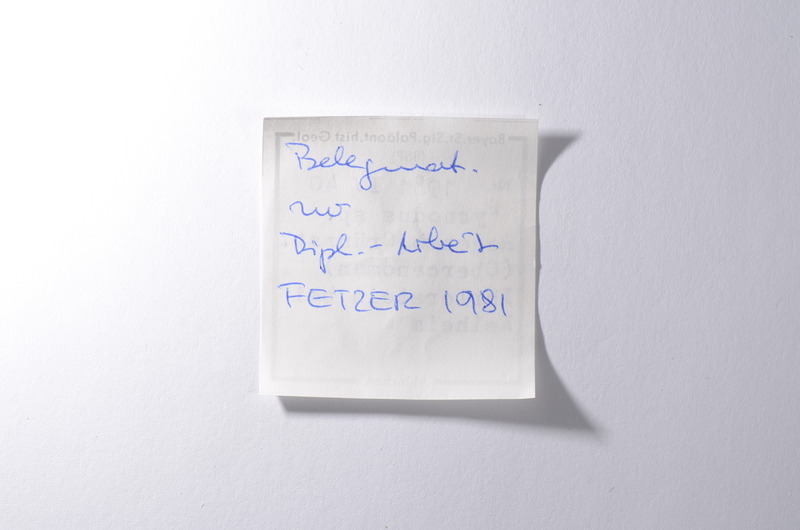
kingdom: Animalia
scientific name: Animalia
